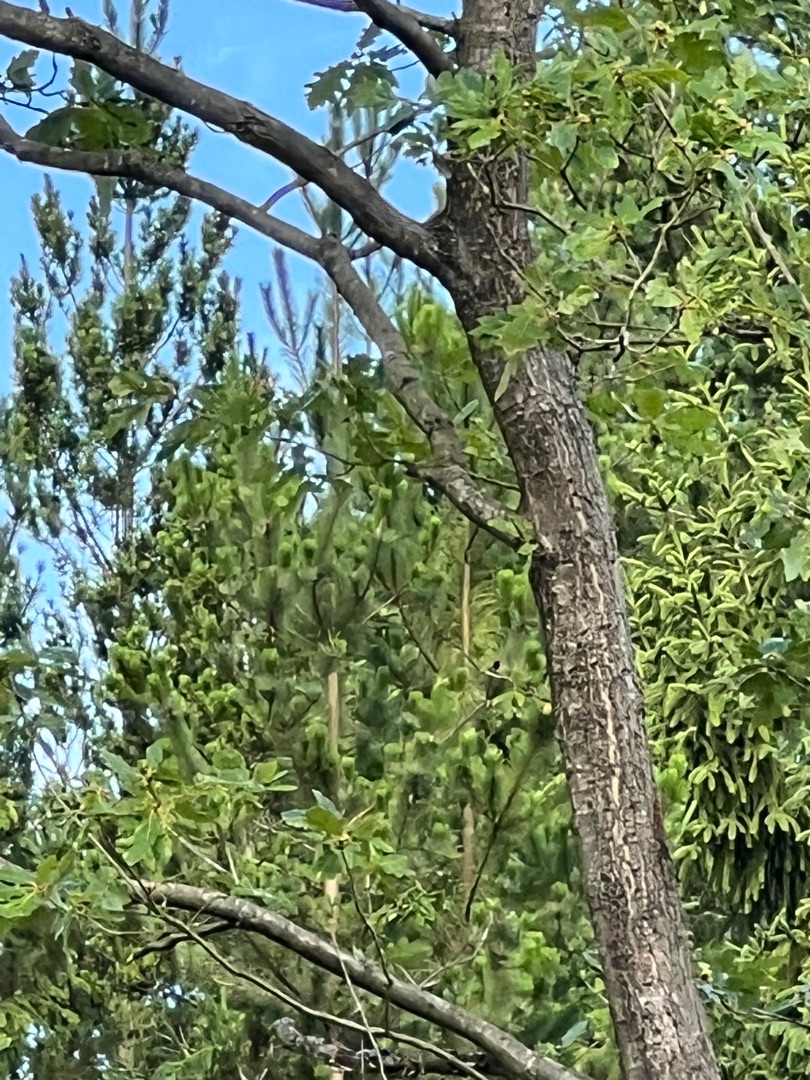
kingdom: Animalia
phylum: Chordata
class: Aves
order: Piciformes
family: Picidae
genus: Dendrocopos
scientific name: Dendrocopos major
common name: Stor flagspætte
